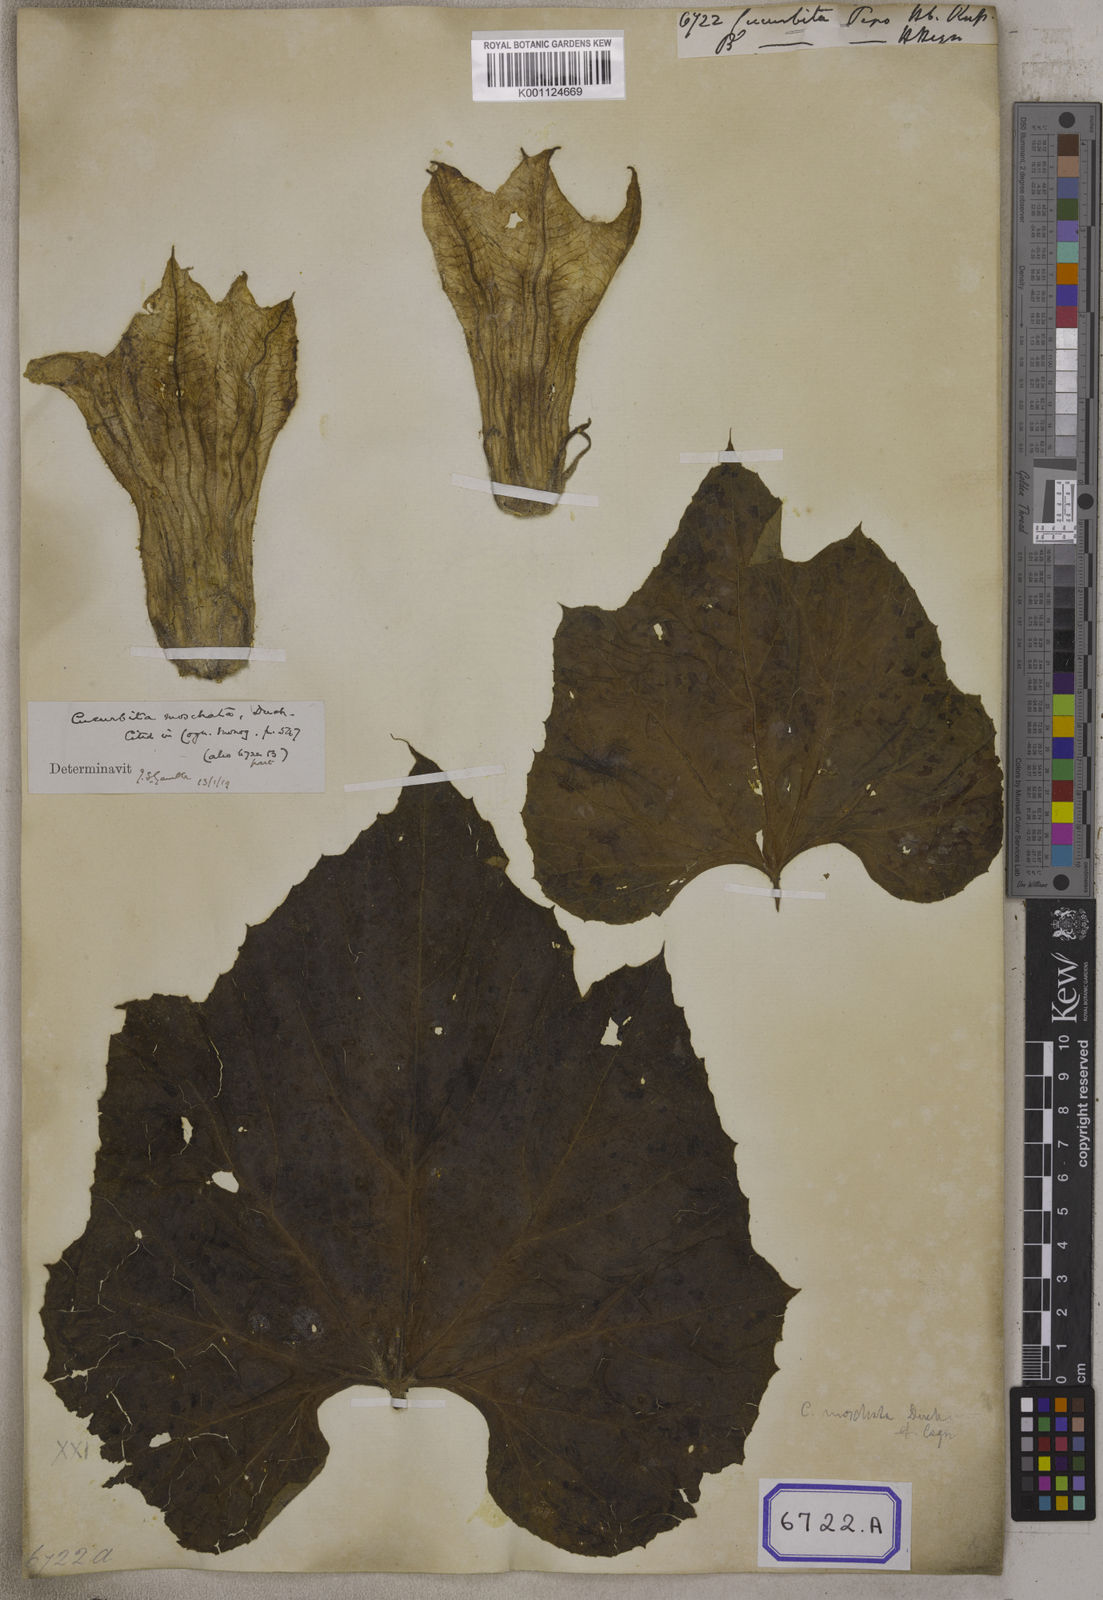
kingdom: Plantae
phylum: Tracheophyta
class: Magnoliopsida
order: Cucurbitales
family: Cucurbitaceae
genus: Cucurbita
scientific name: Cucurbita
